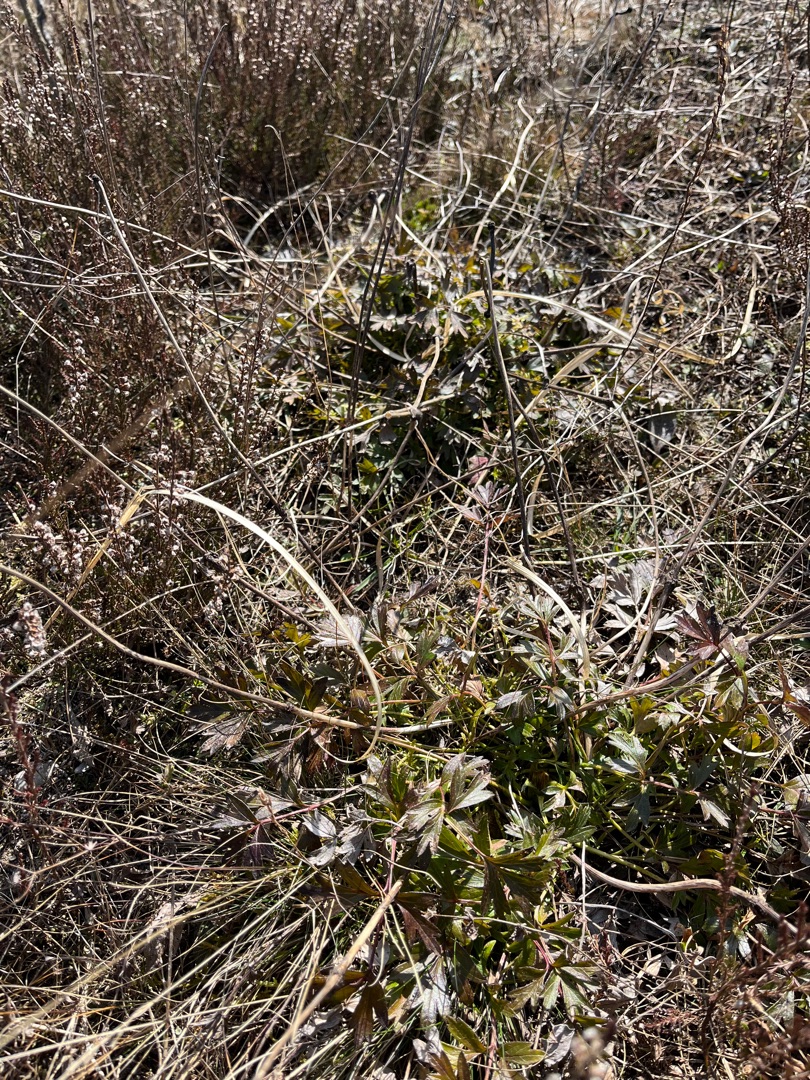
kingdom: Plantae
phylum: Tracheophyta
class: Magnoliopsida
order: Ranunculales
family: Ranunculaceae
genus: Pulsatilla
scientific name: Pulsatilla vernalis
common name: Vår-kobjælde
